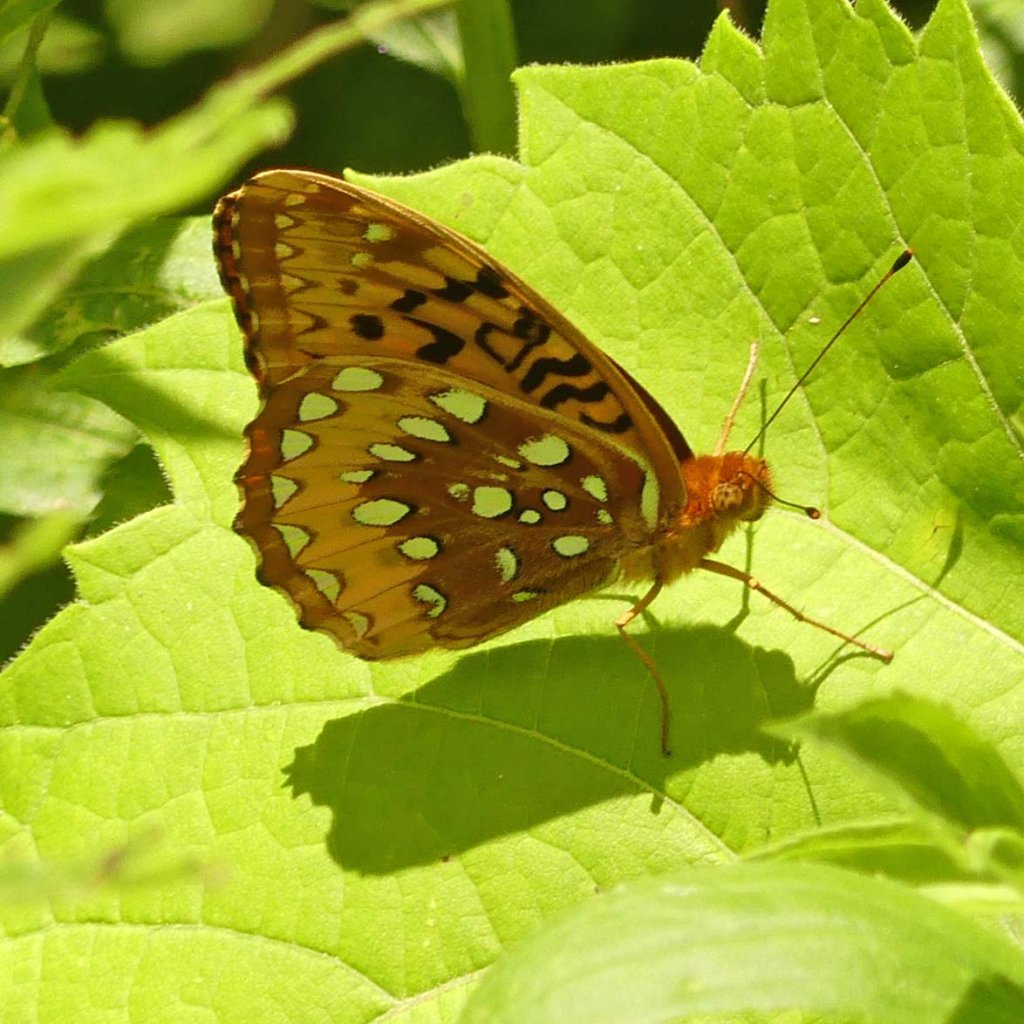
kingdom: Animalia
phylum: Arthropoda
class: Insecta
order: Lepidoptera
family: Nymphalidae
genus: Speyeria
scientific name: Speyeria cybele
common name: Great Spangled Fritillary
